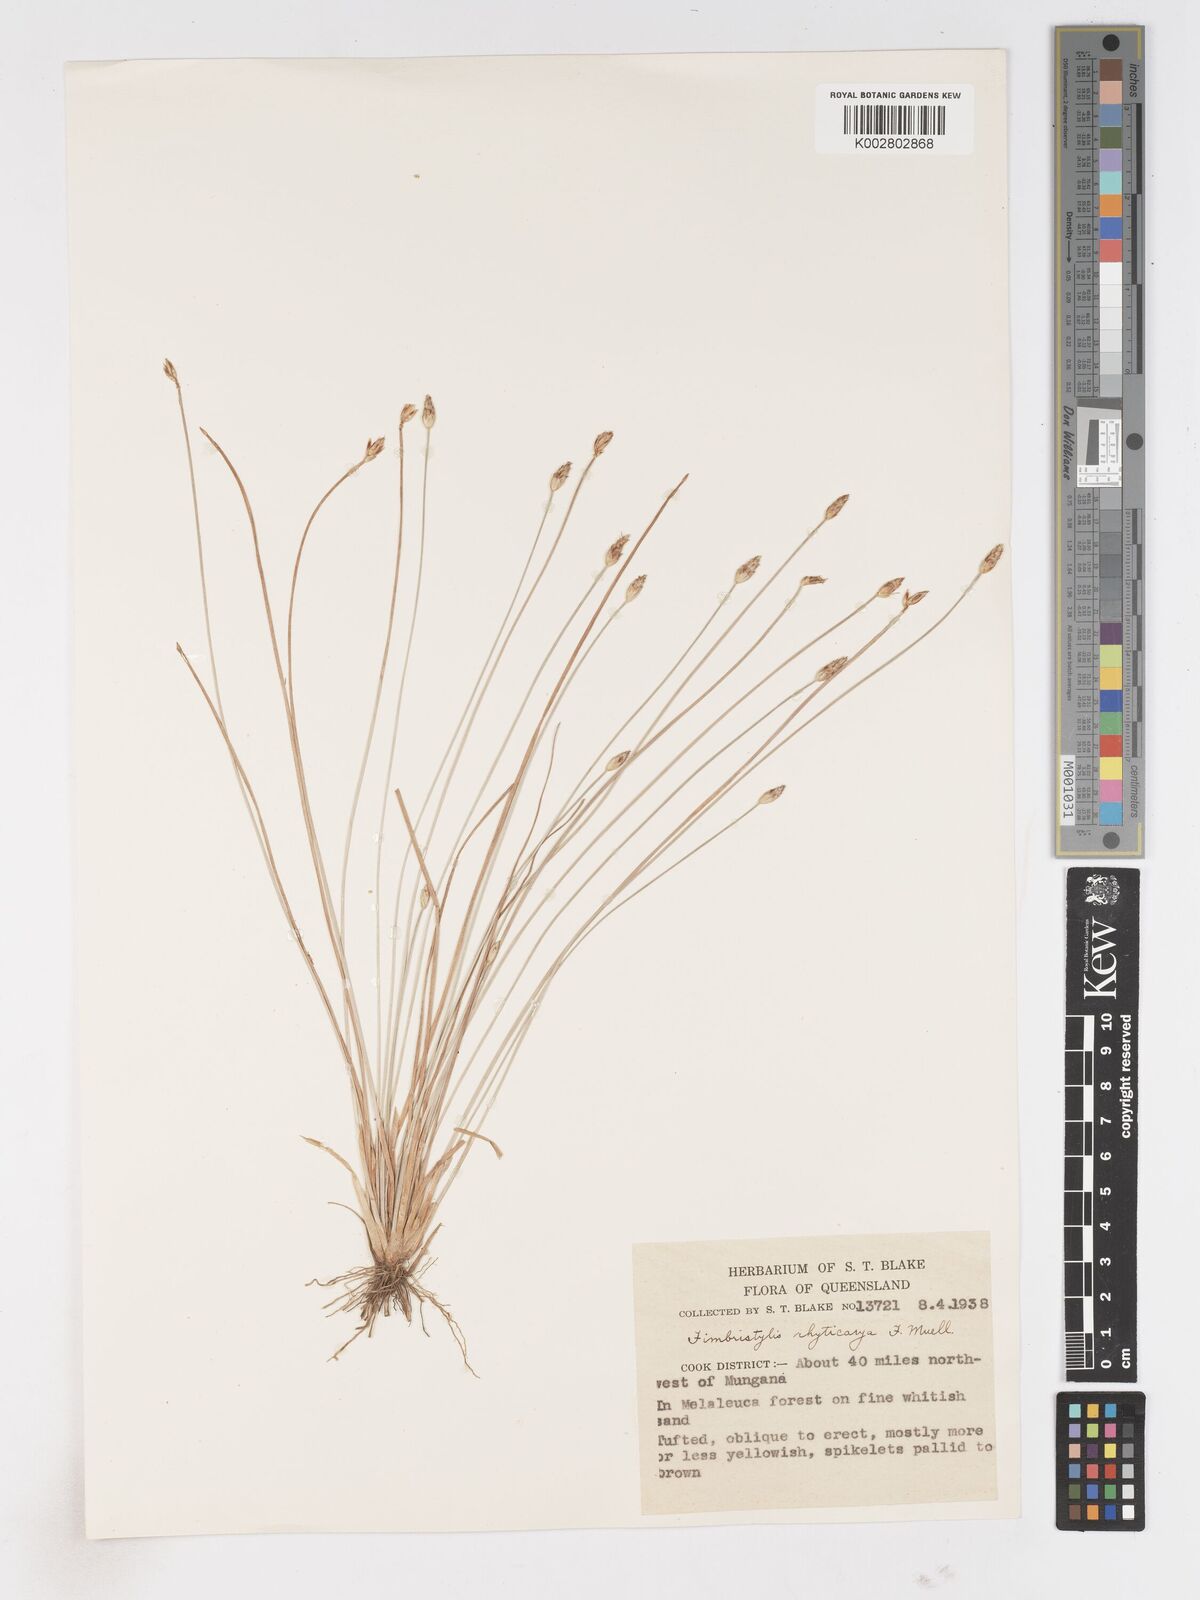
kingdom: Plantae
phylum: Tracheophyta
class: Liliopsida
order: Poales
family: Cyperaceae
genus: Fimbristylis
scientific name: Fimbristylis rhyticarya
